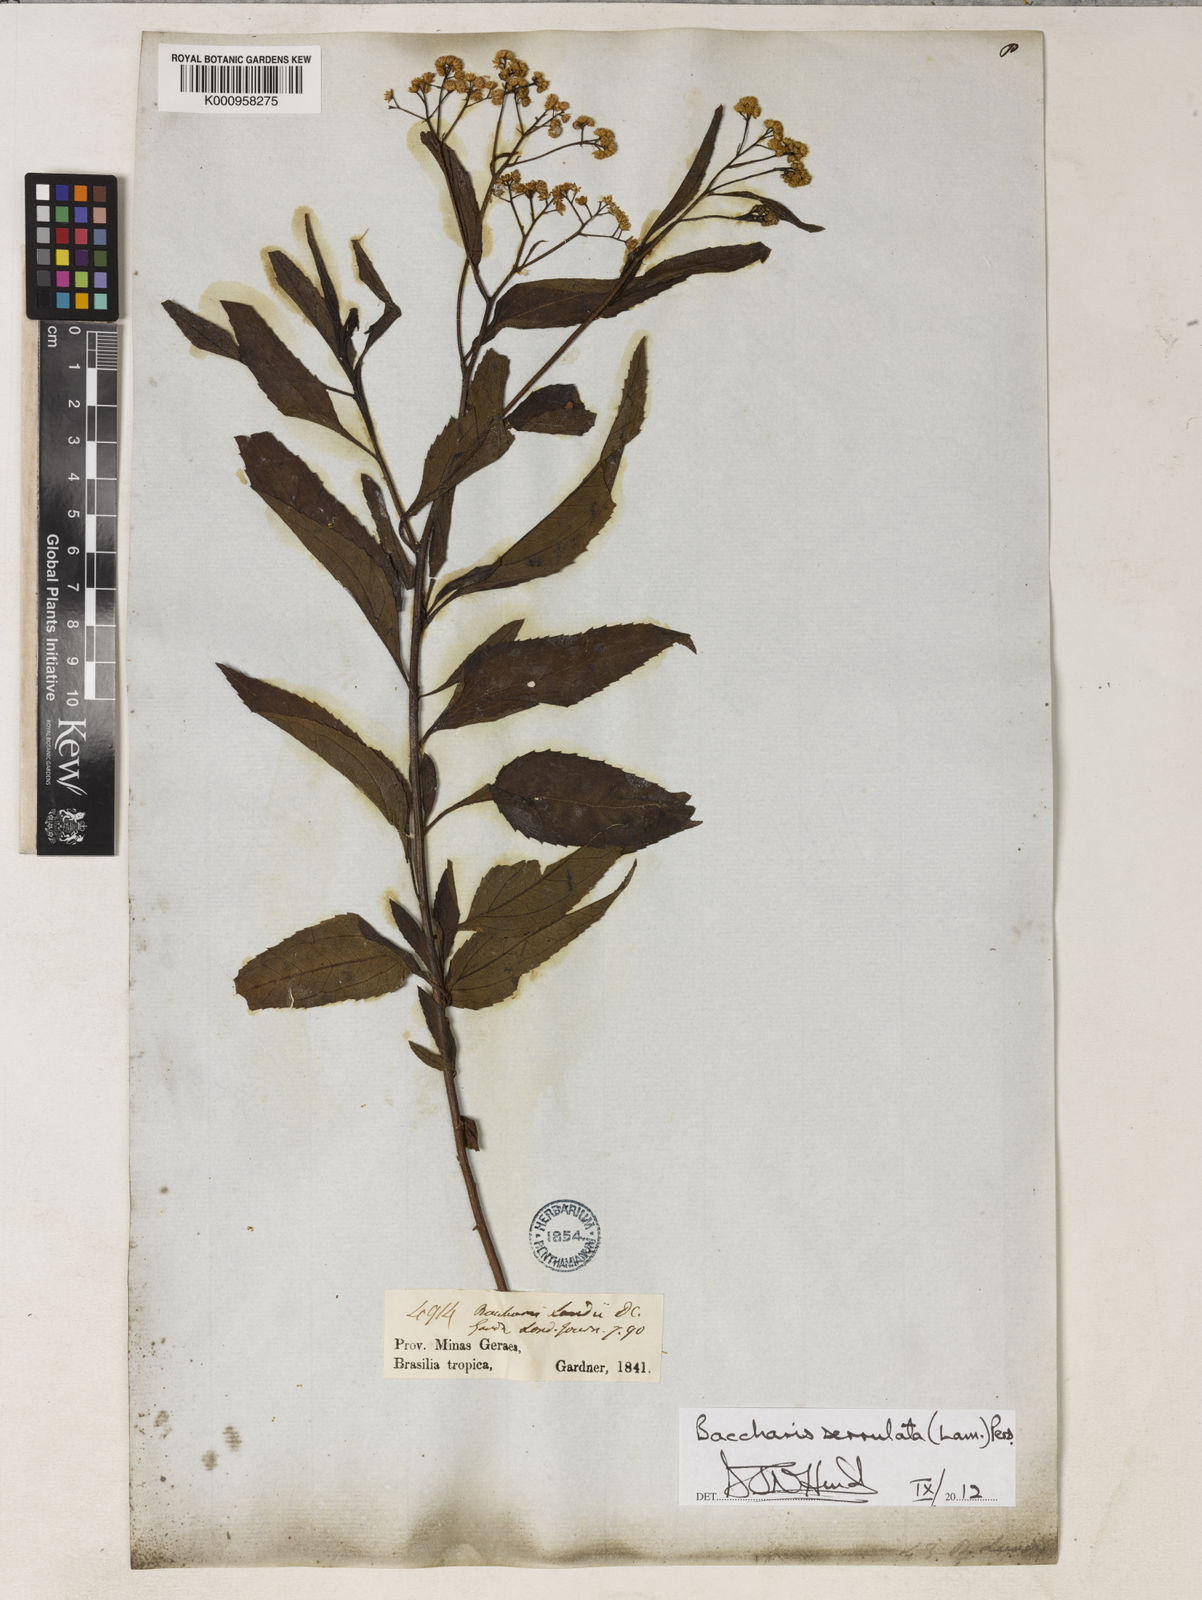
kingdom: Plantae
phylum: Tracheophyta
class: Magnoliopsida
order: Asterales
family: Asteraceae
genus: Baccharis
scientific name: Baccharis serrulata
